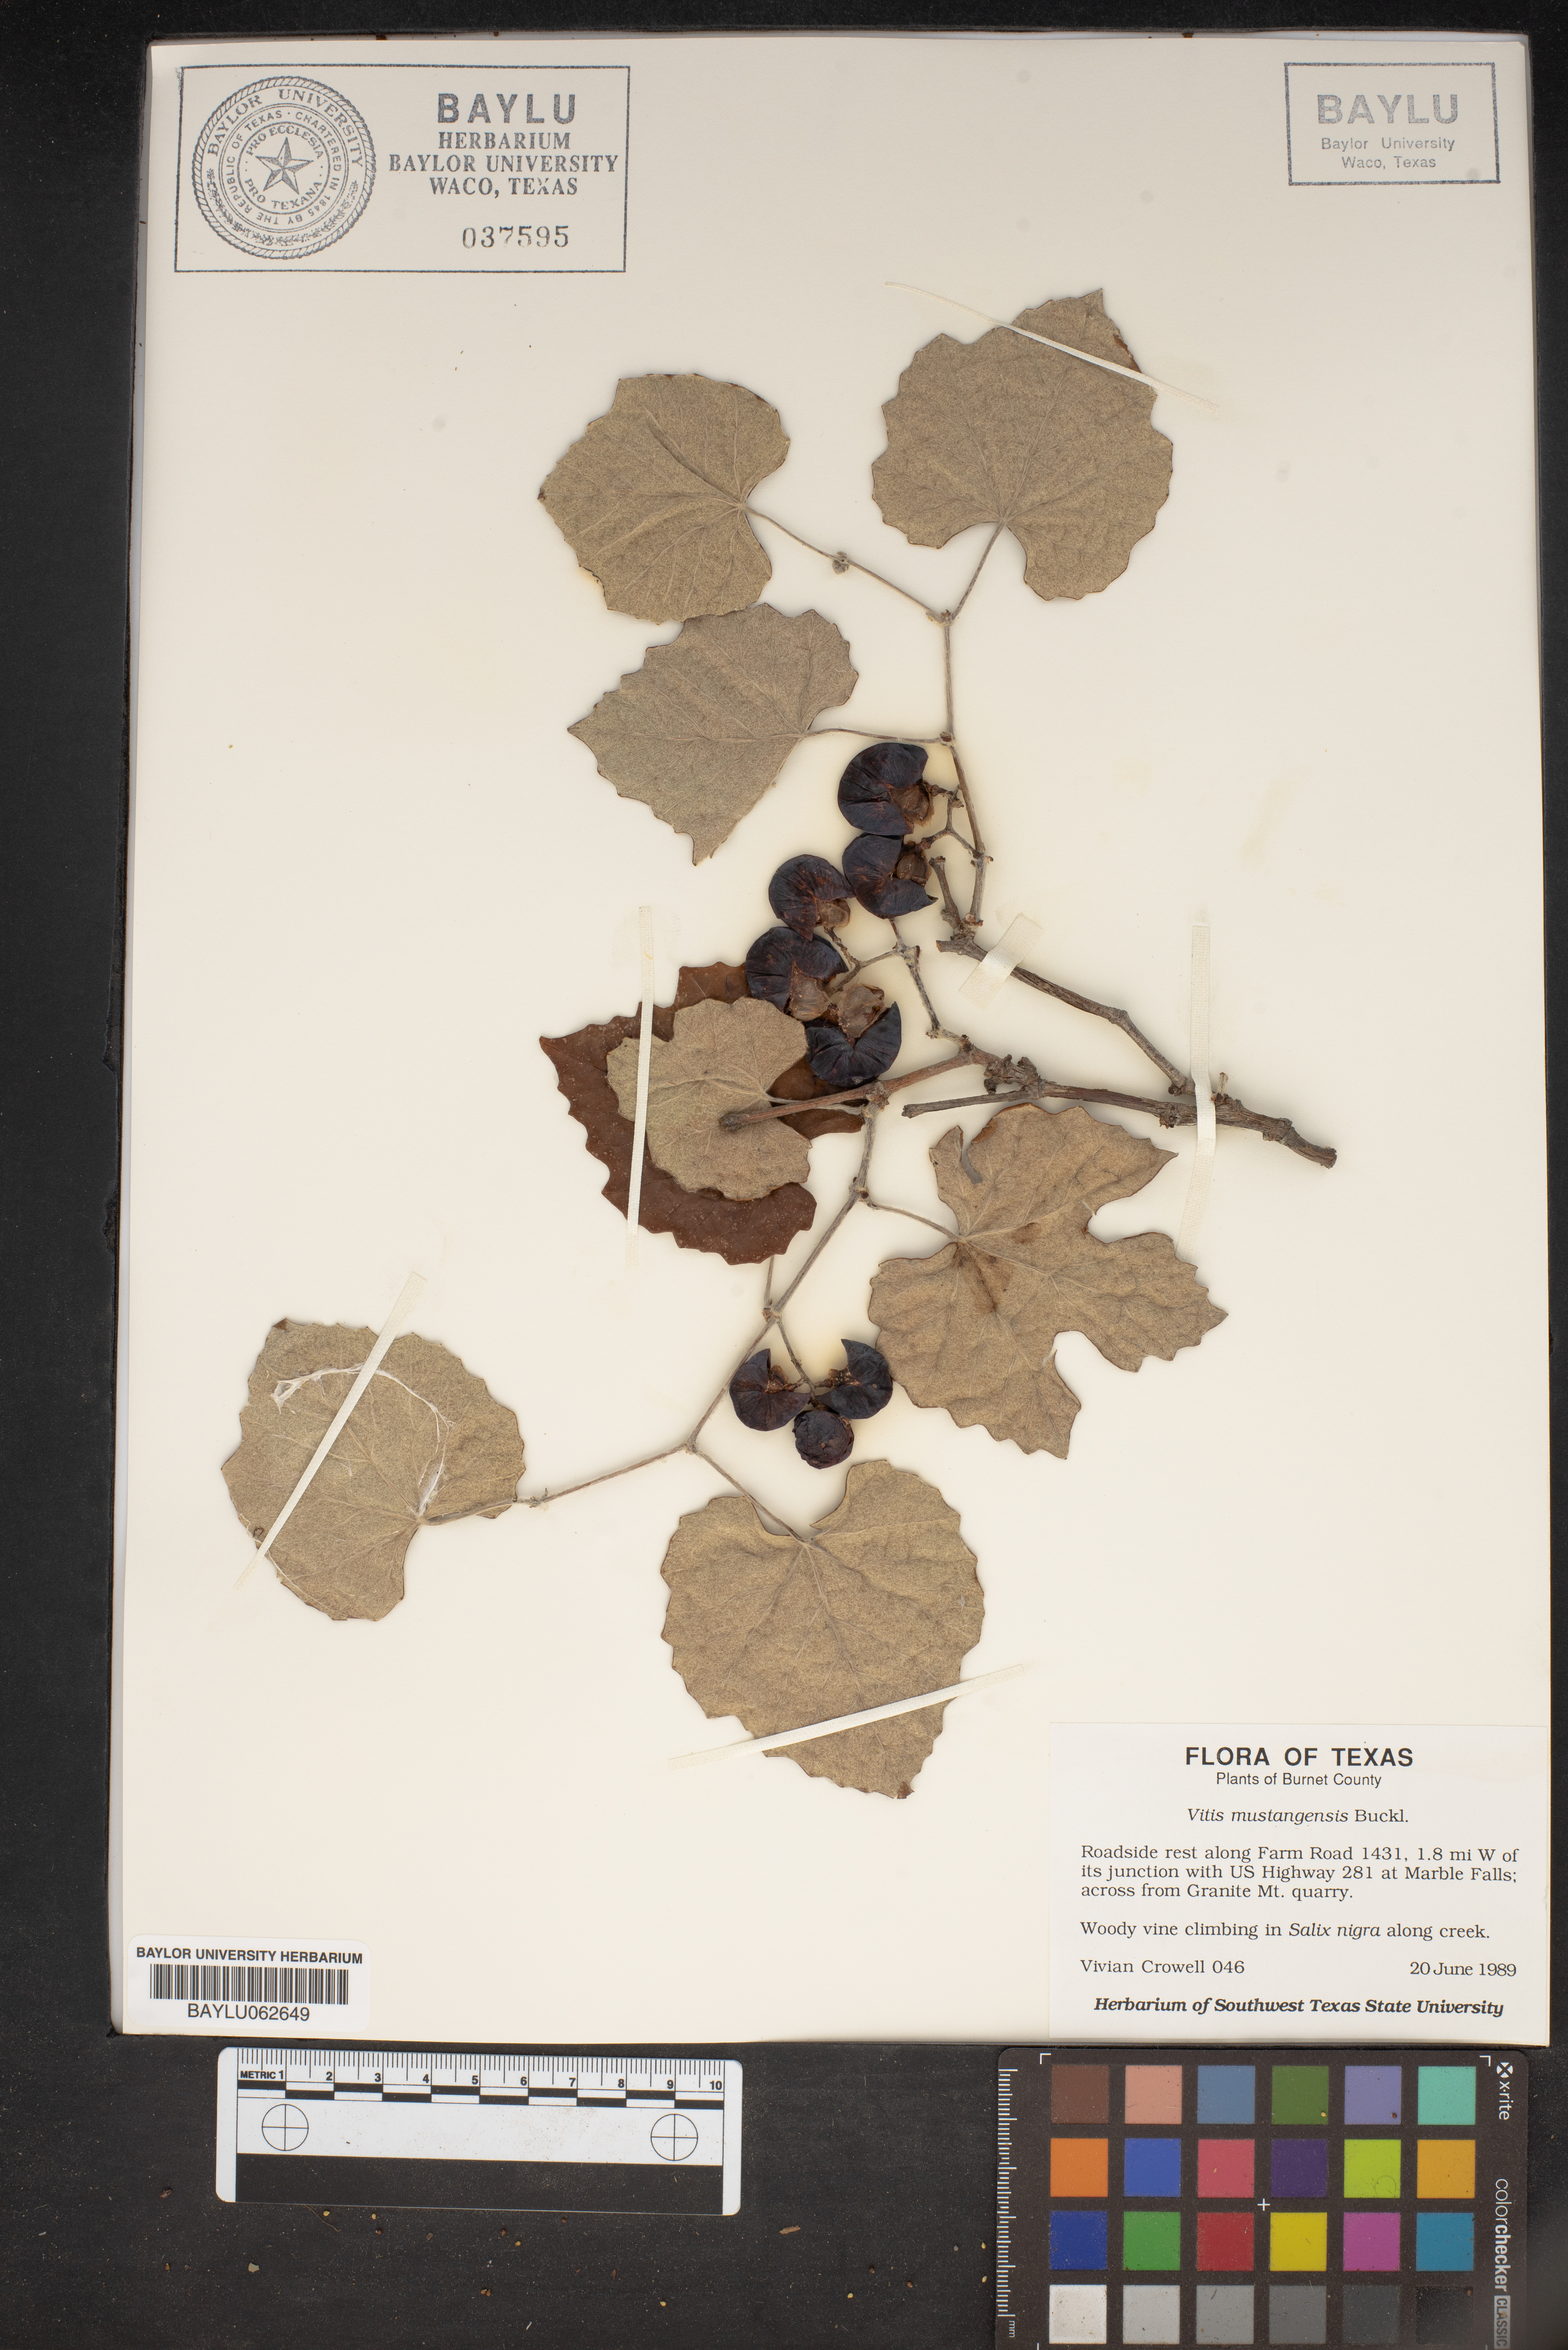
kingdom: Plantae
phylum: Tracheophyta
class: Magnoliopsida
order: Vitales
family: Vitaceae
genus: Vitis
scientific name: Vitis mustangensis
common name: Mustang grape
